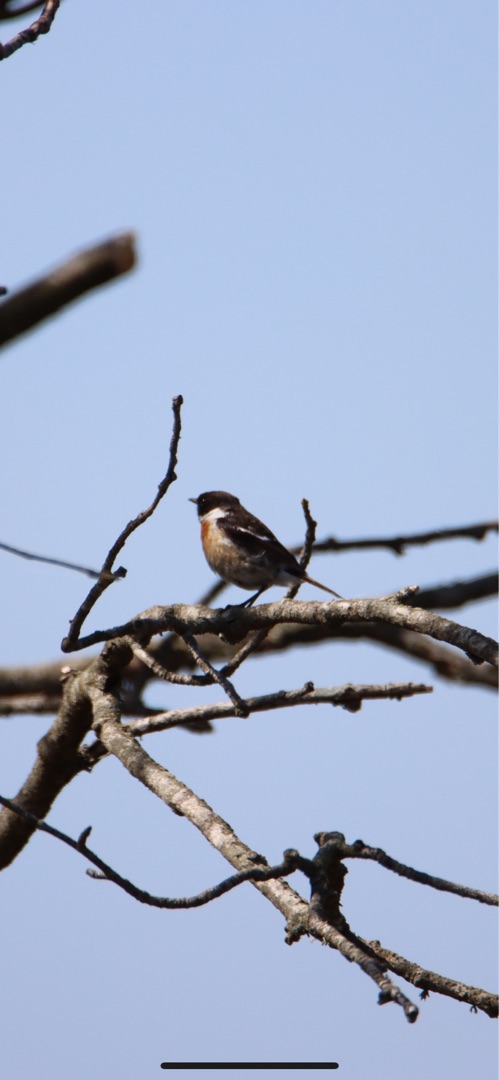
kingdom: Animalia
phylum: Chordata
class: Aves
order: Passeriformes
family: Muscicapidae
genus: Saxicola
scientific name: Saxicola rubicola
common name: Sortstrubet bynkefugl
